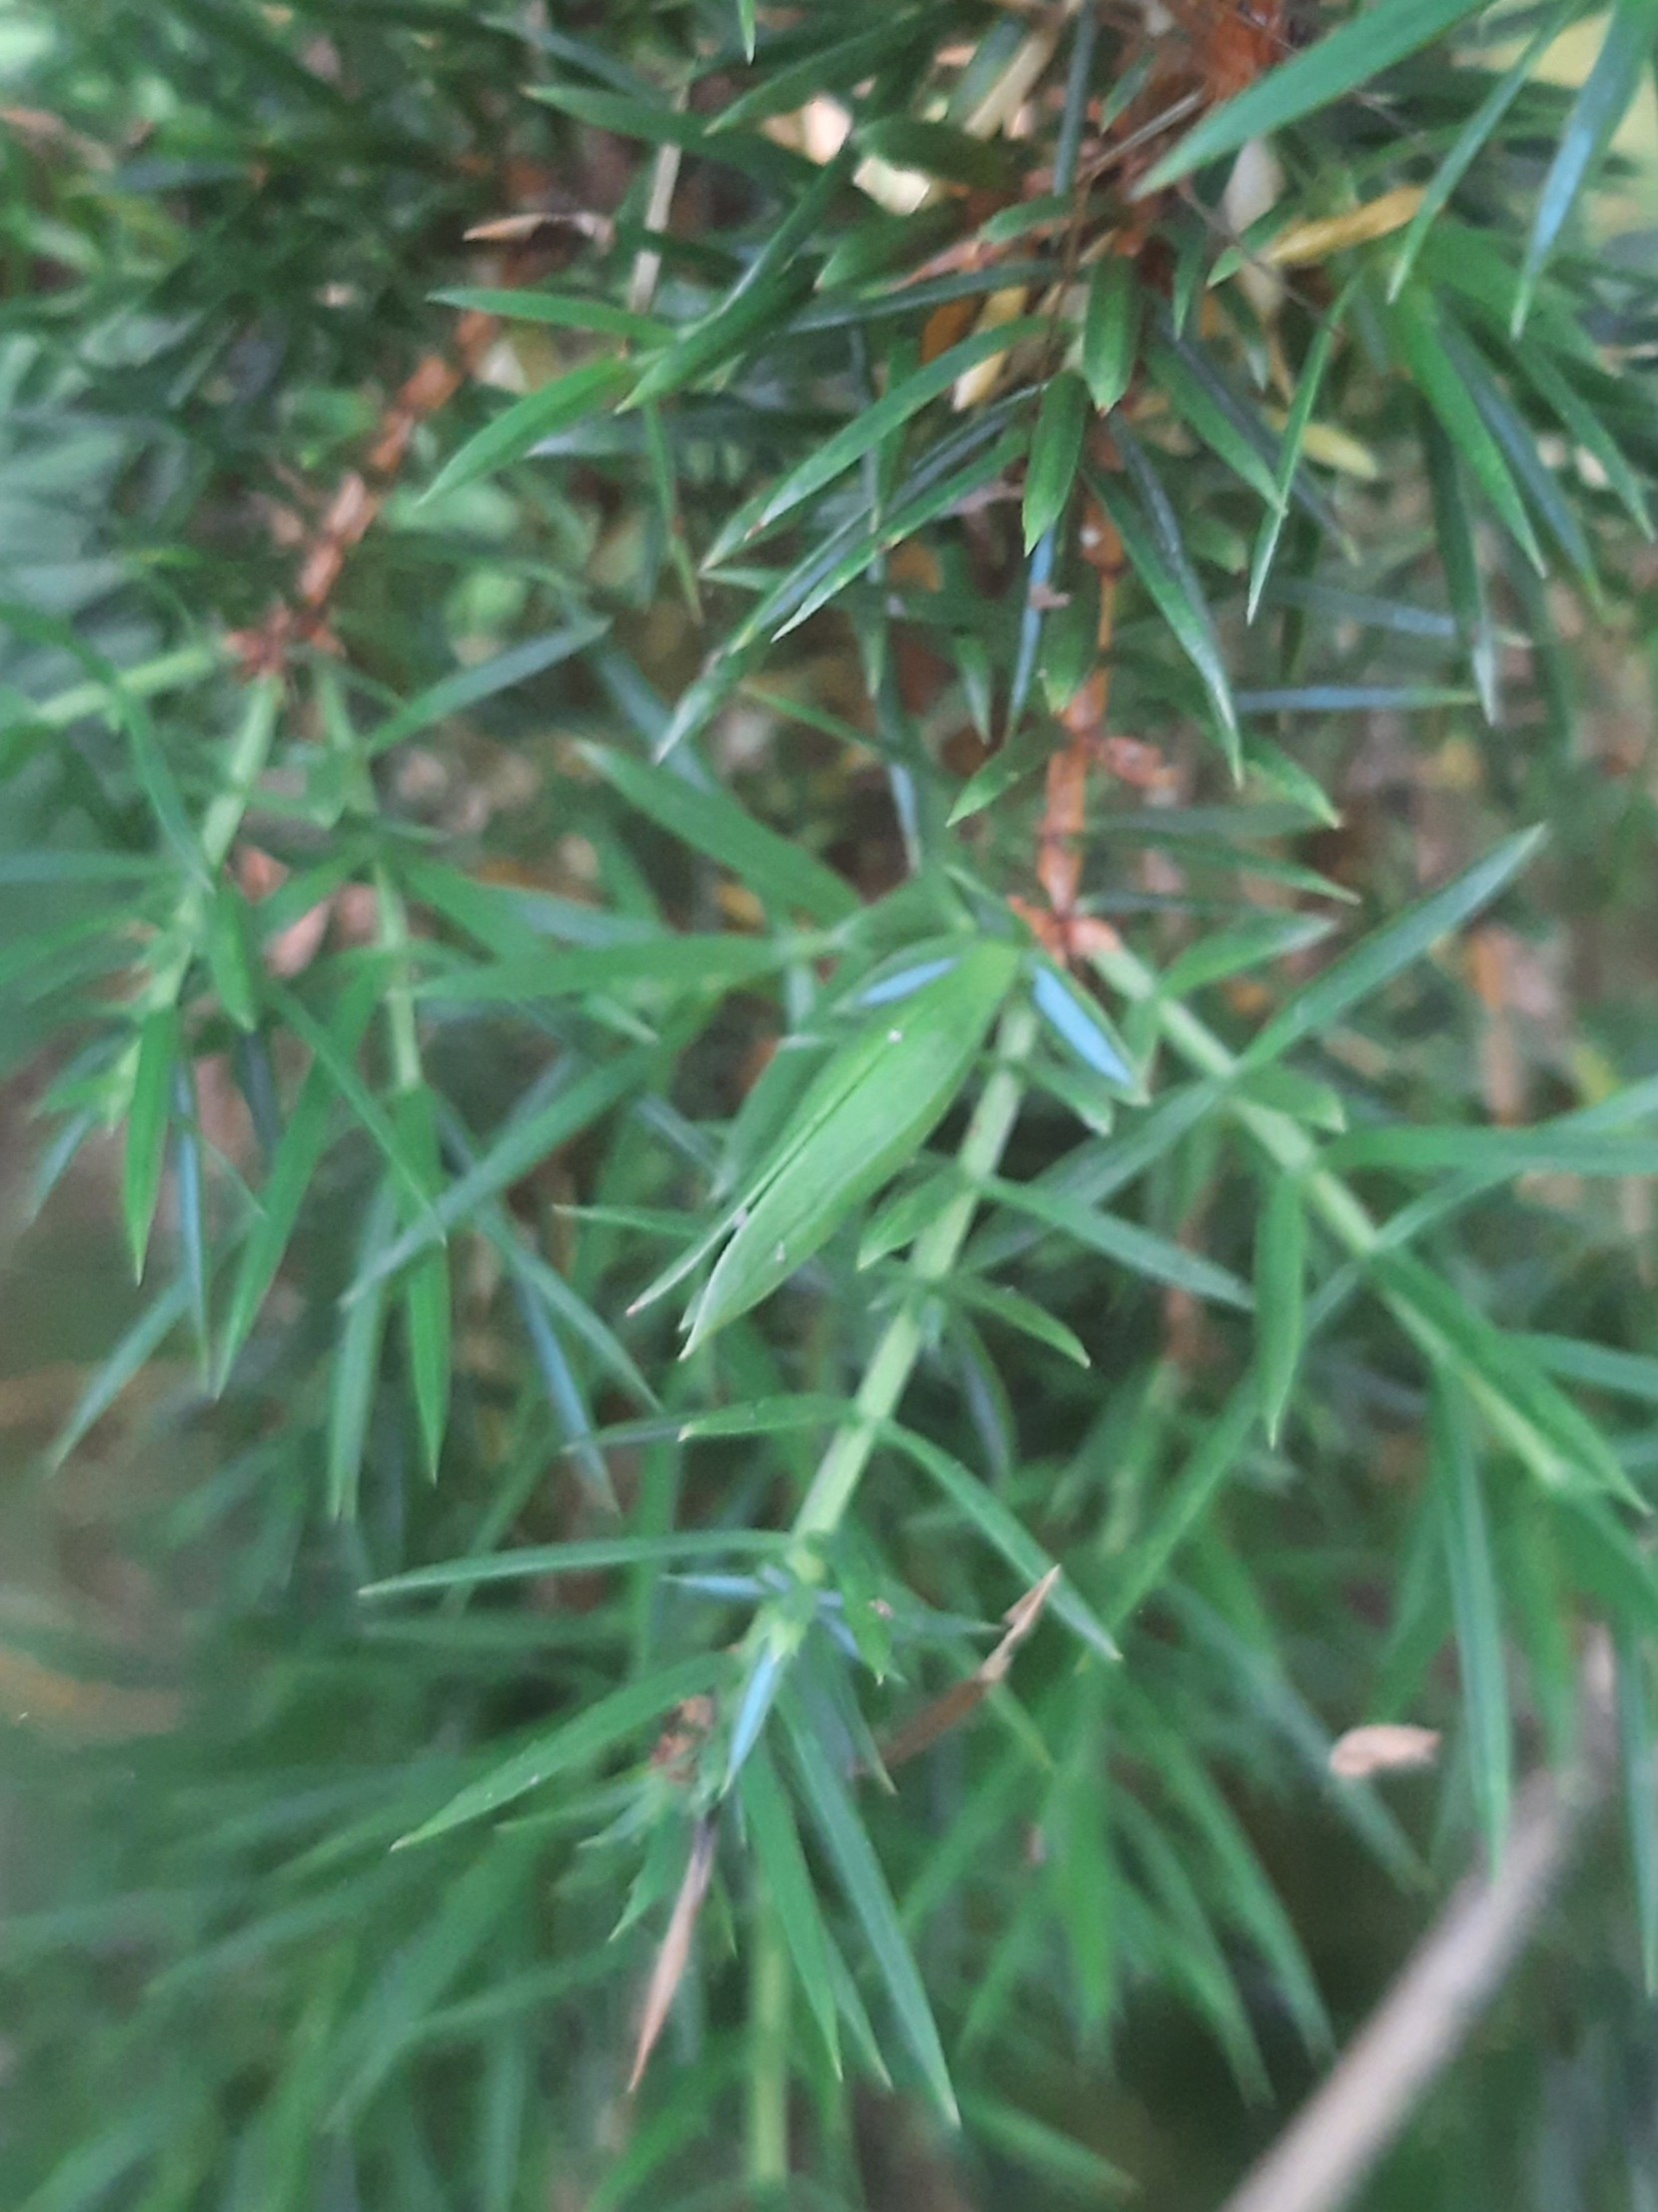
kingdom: Animalia
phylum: Arthropoda
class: Insecta
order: Diptera
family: Cecidomyiidae
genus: Oligotrophus
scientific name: Oligotrophus juniperinus
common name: Kikbærgalmyg
